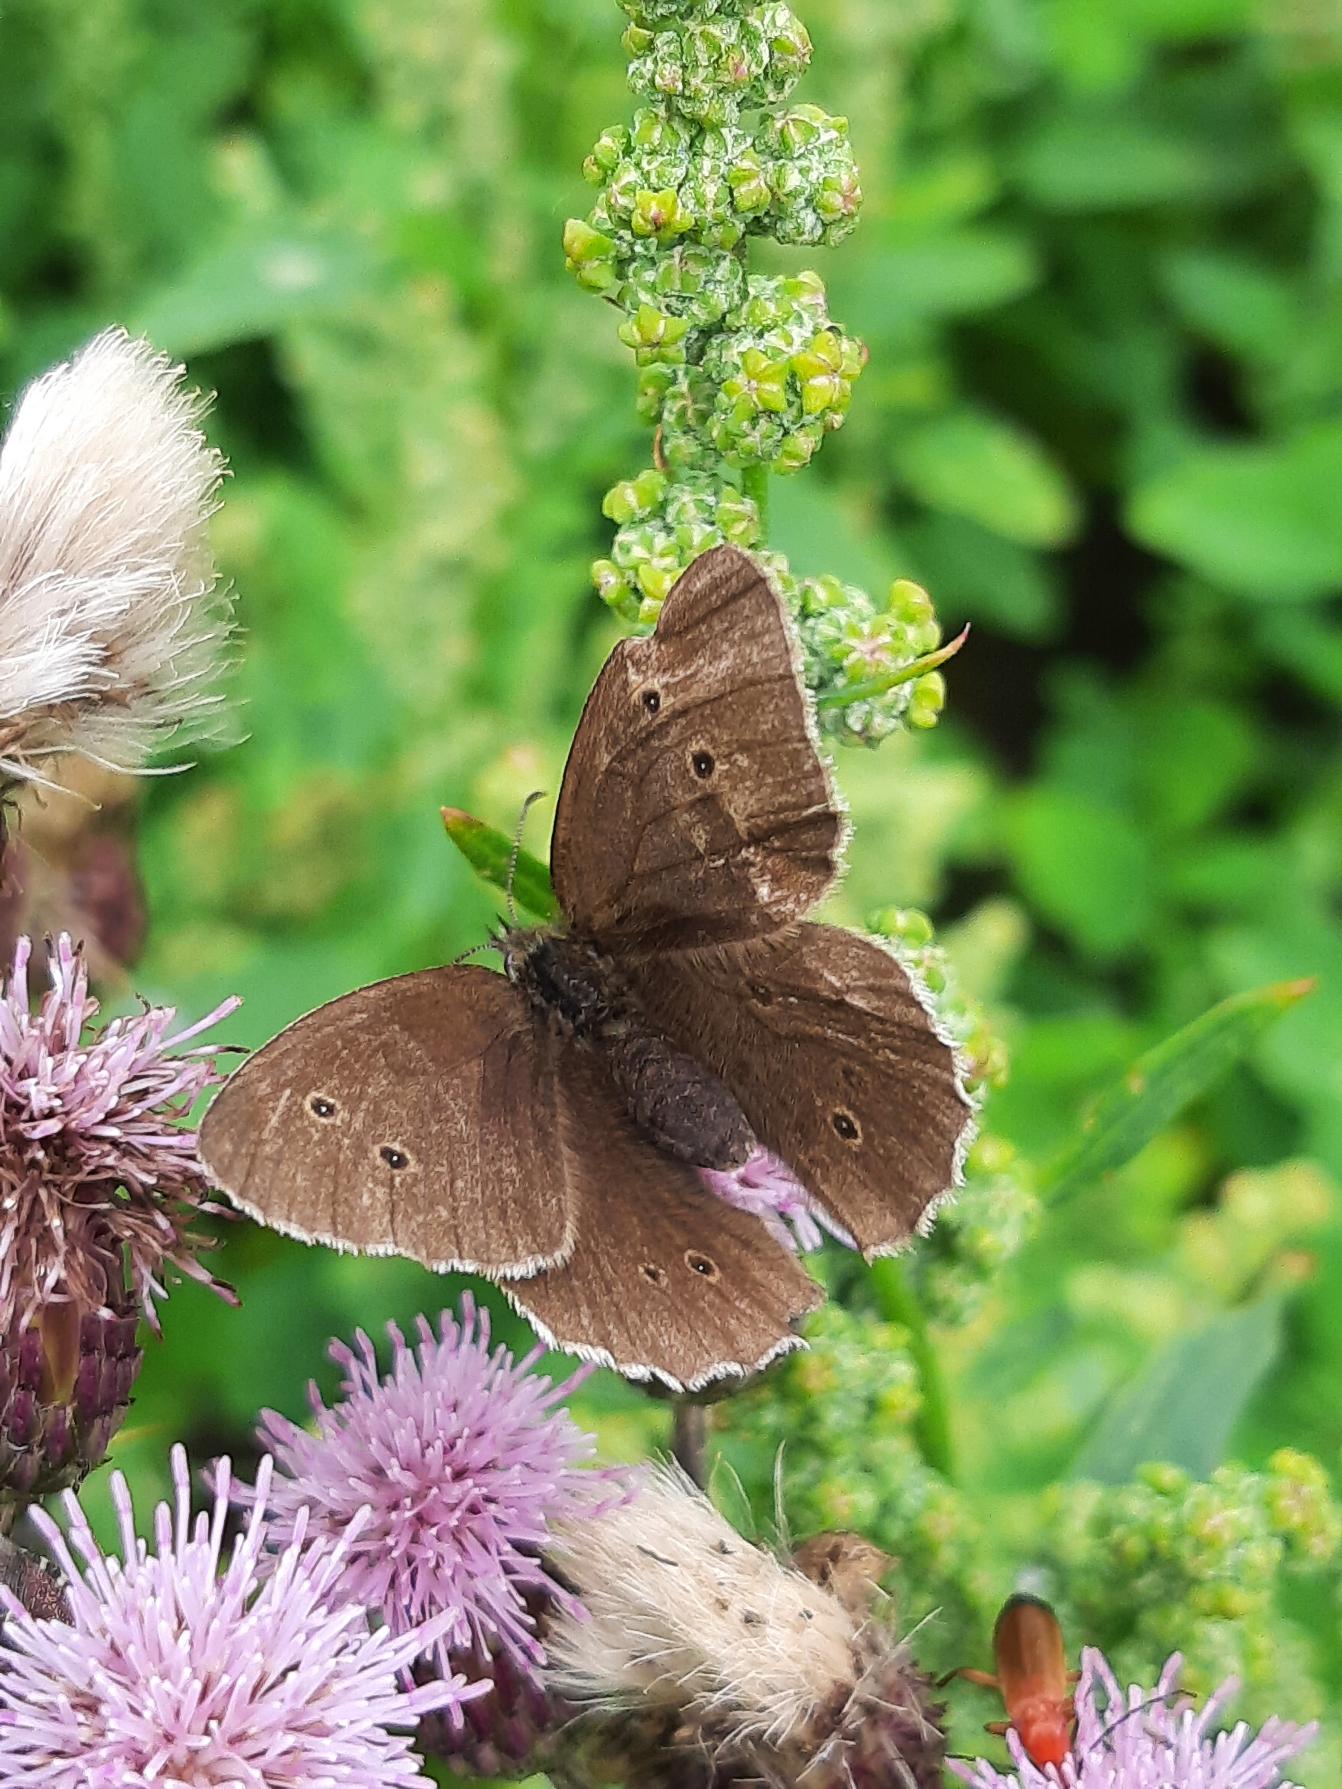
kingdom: Animalia
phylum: Arthropoda
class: Insecta
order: Lepidoptera
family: Nymphalidae
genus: Aphantopus
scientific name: Aphantopus hyperantus
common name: Engrandøje
